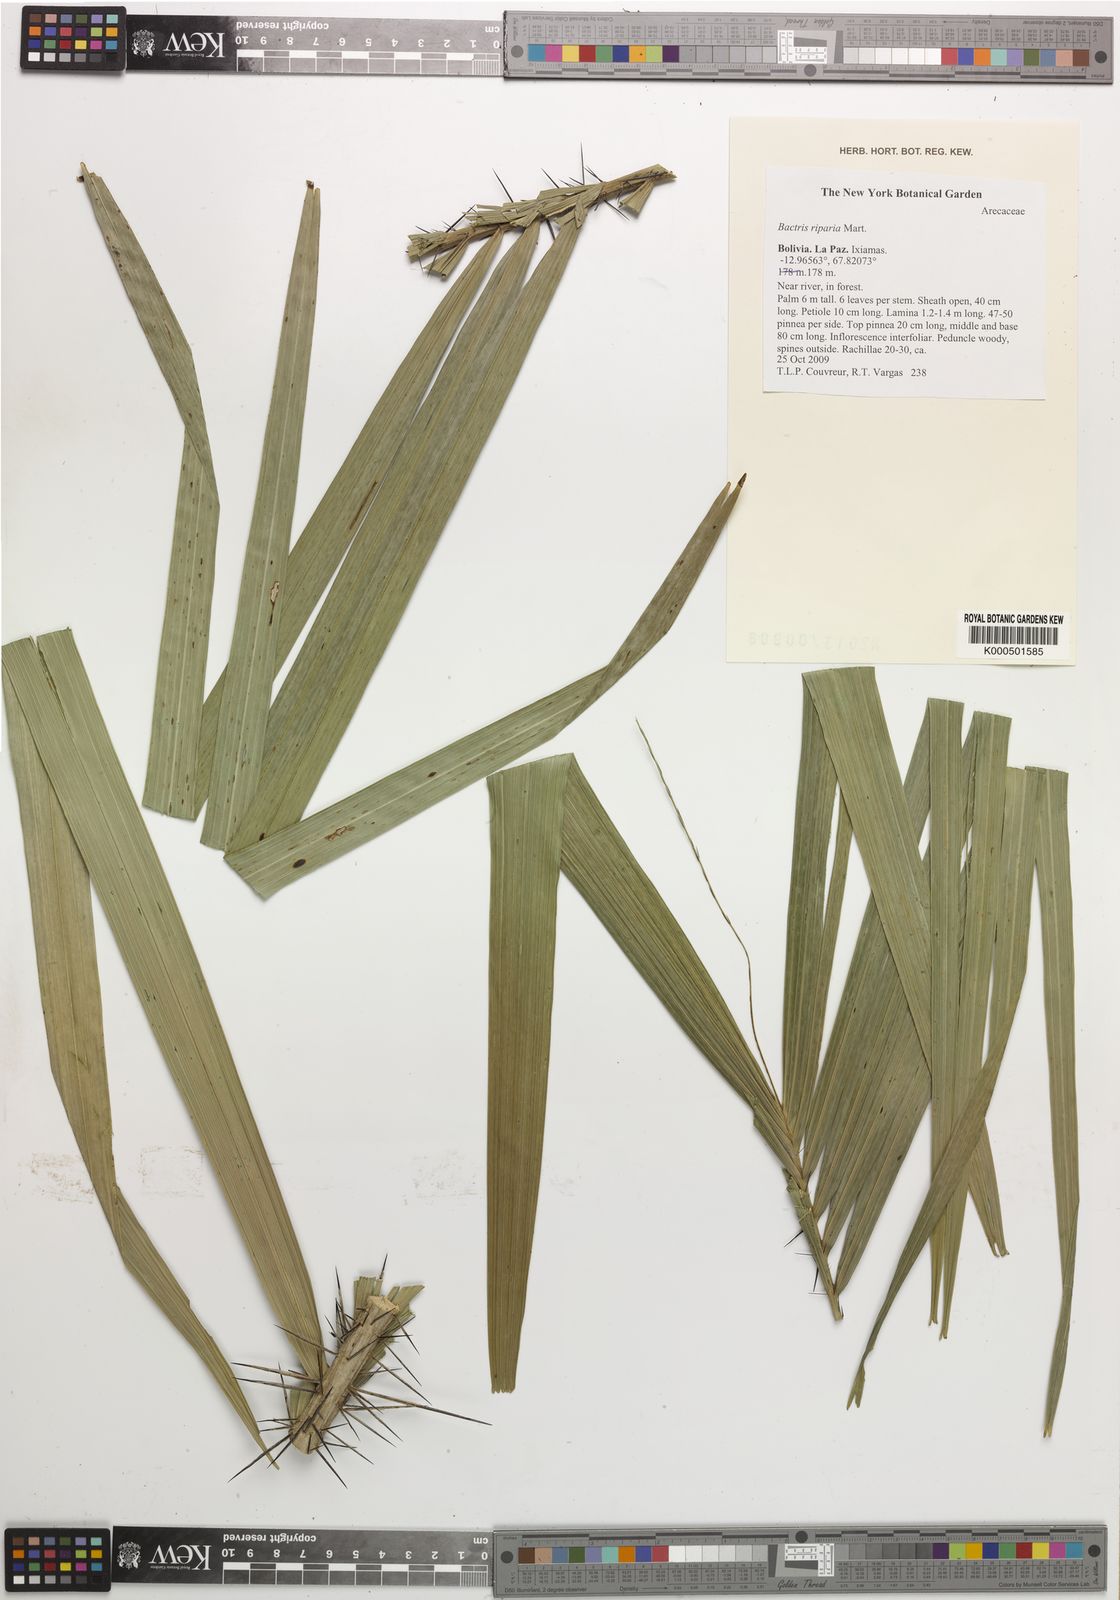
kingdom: Plantae
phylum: Tracheophyta
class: Liliopsida
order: Arecales
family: Arecaceae
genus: Bactris
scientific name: Bactris riparia
